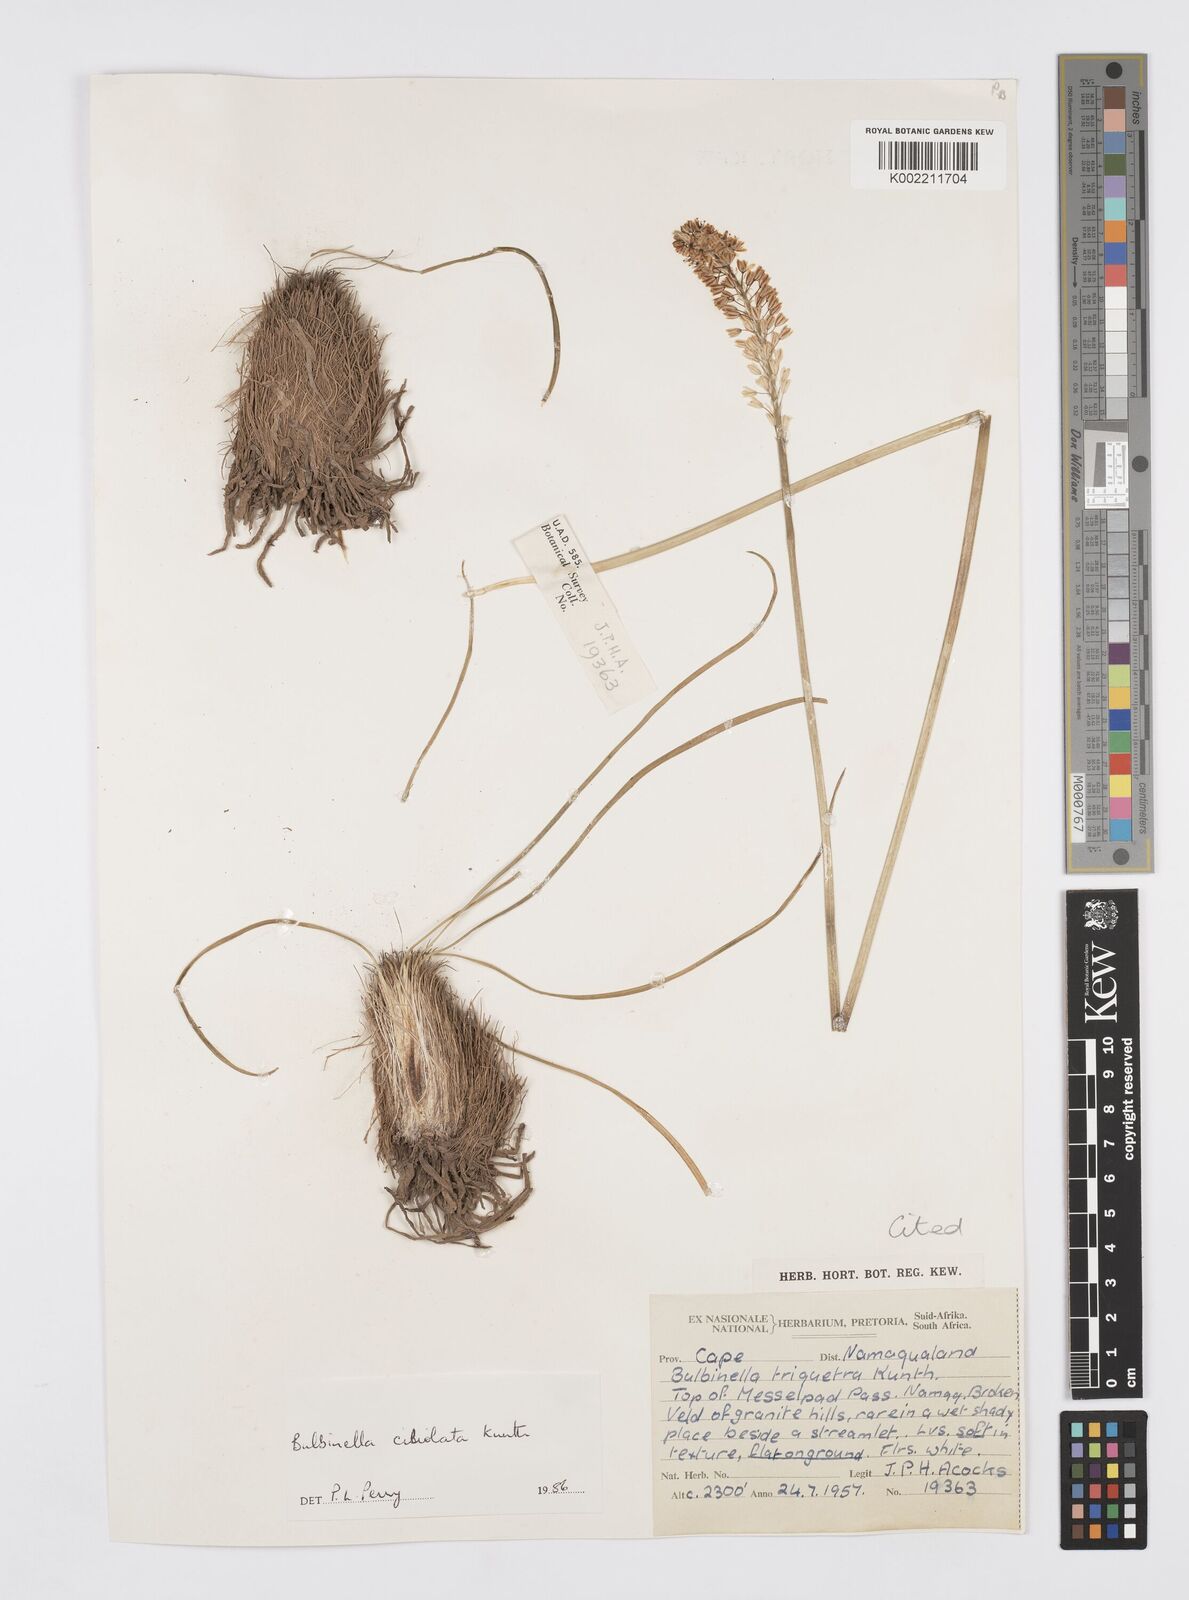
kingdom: Plantae
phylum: Tracheophyta
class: Liliopsida
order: Asparagales
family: Asphodelaceae
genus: Bulbinella
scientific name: Bulbinella ciliolata
